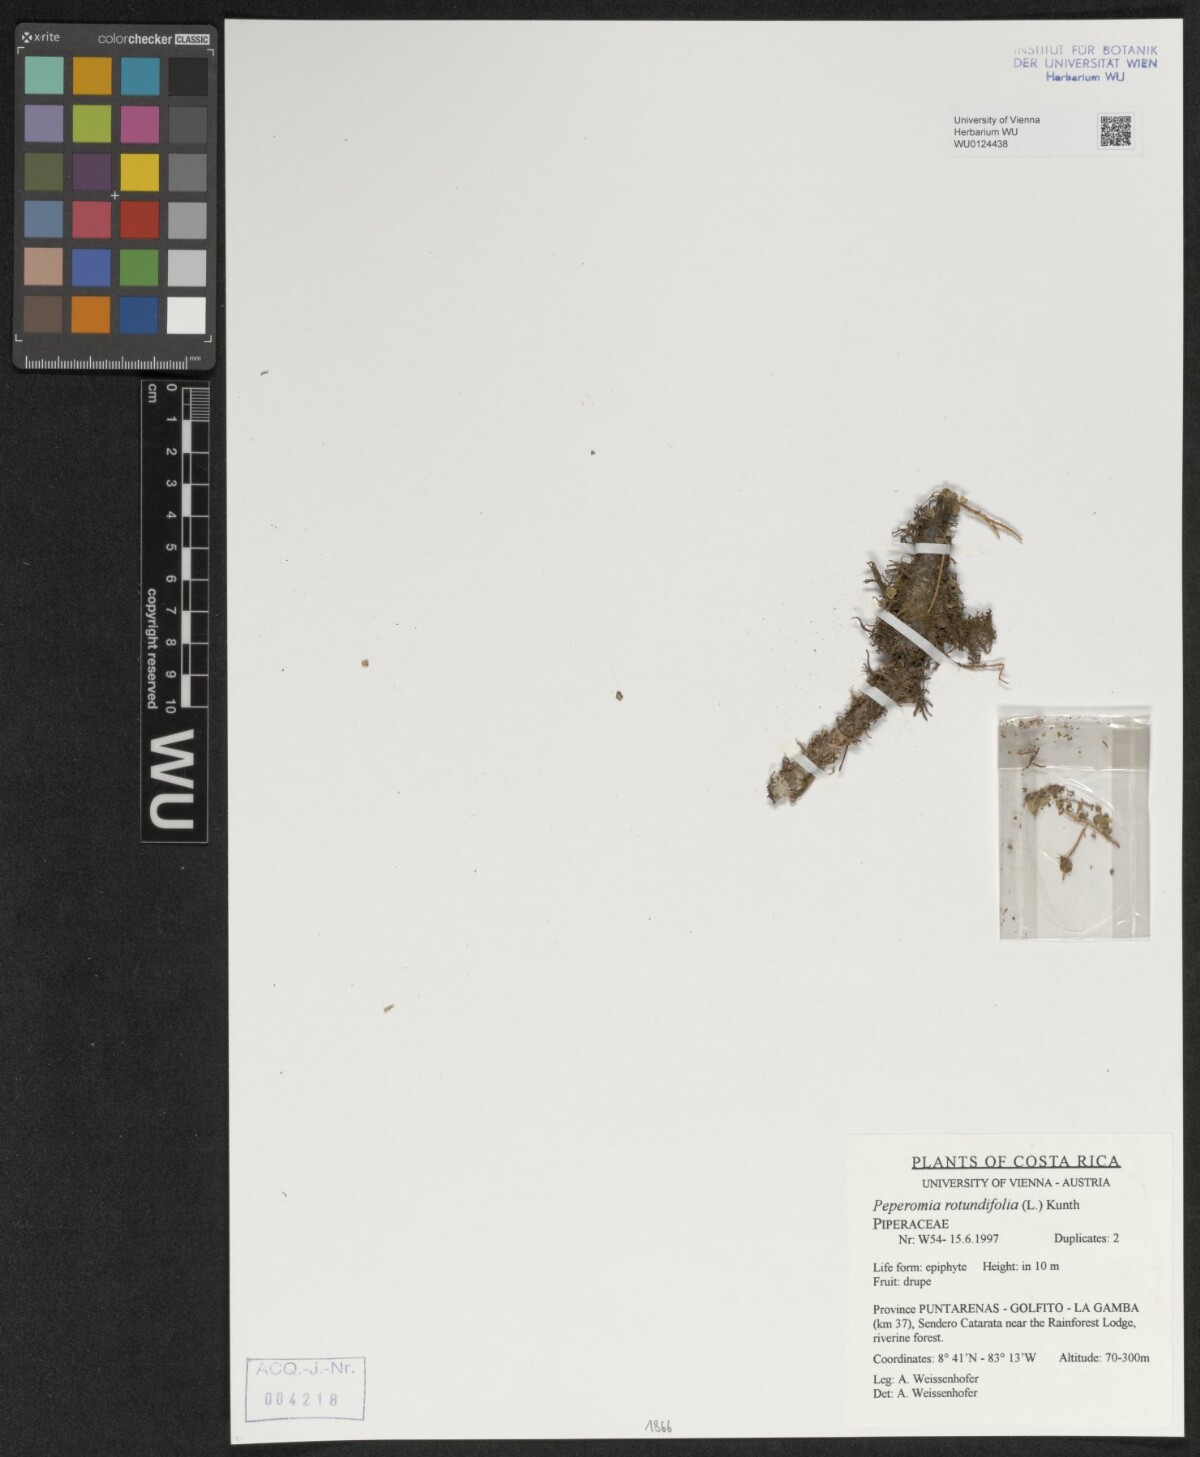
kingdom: Plantae
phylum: Tracheophyta
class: Magnoliopsida
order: Piperales
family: Piperaceae
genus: Peperomia
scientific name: Peperomia rotundifolia
